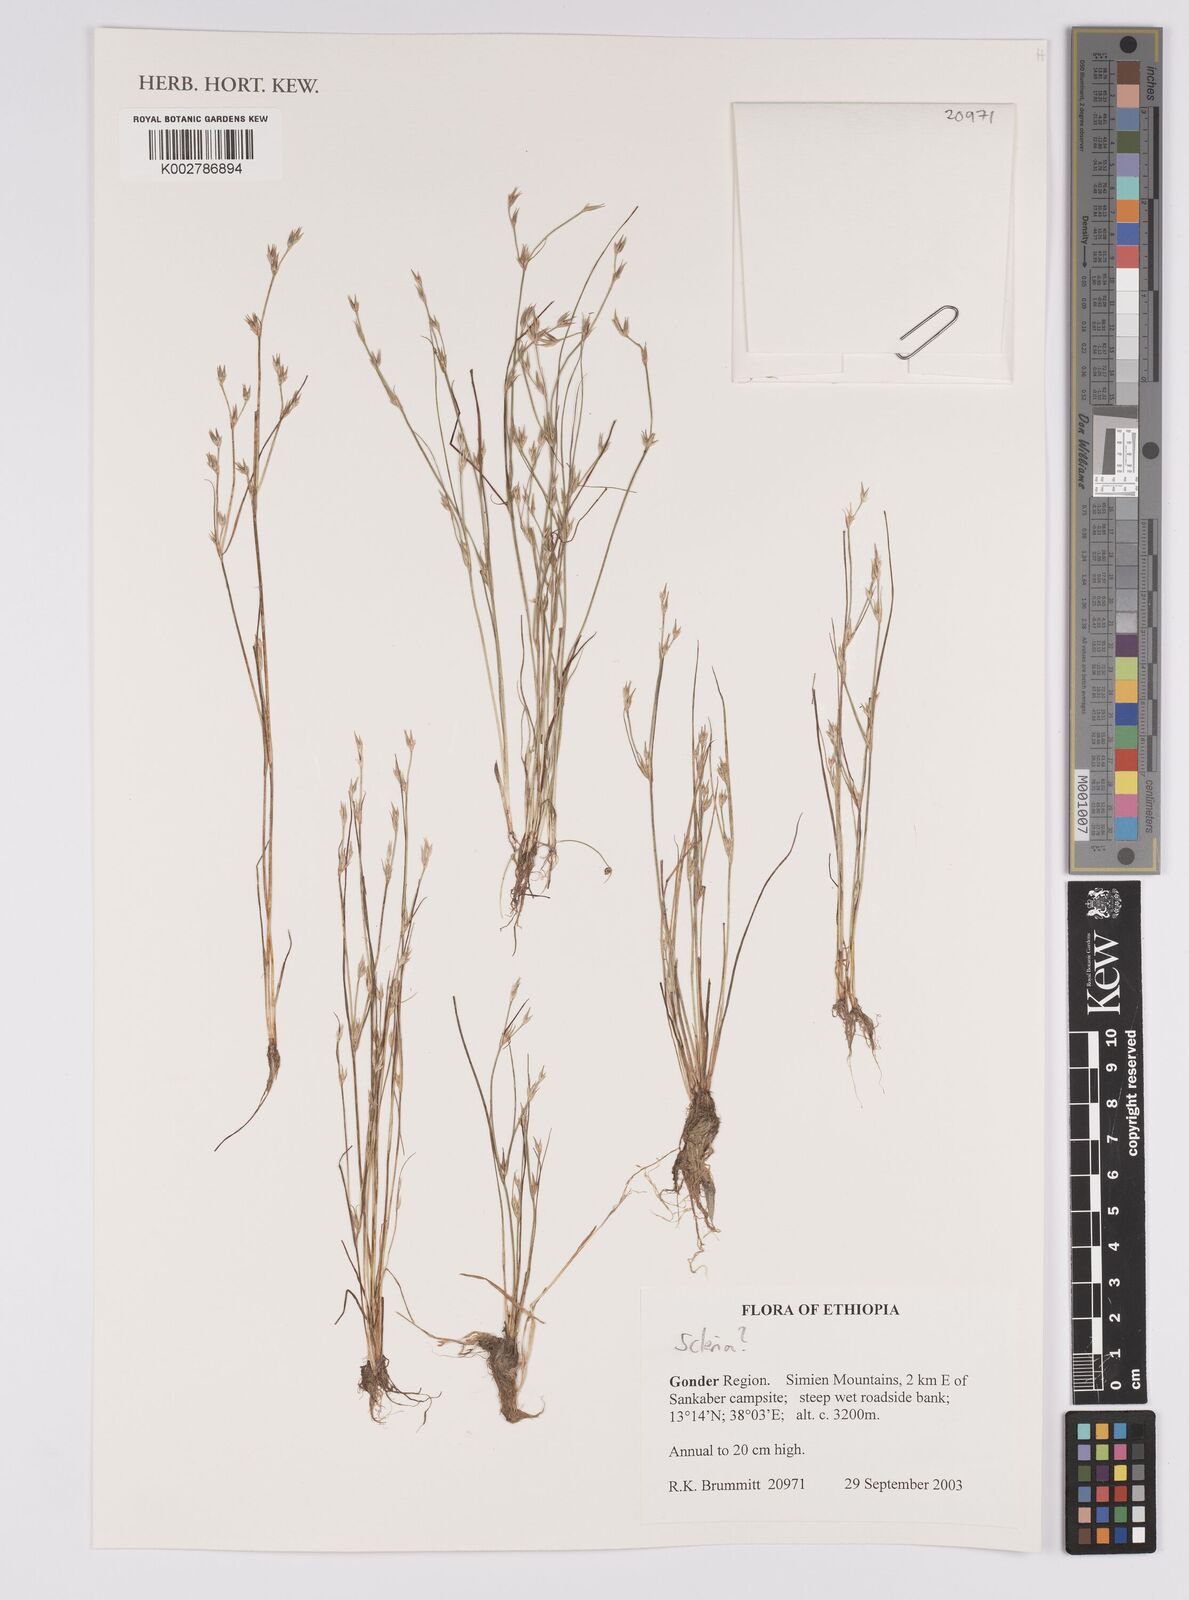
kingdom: Plantae
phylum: Tracheophyta
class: Liliopsida
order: Poales
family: Cyperaceae
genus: Scleria
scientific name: Scleria
